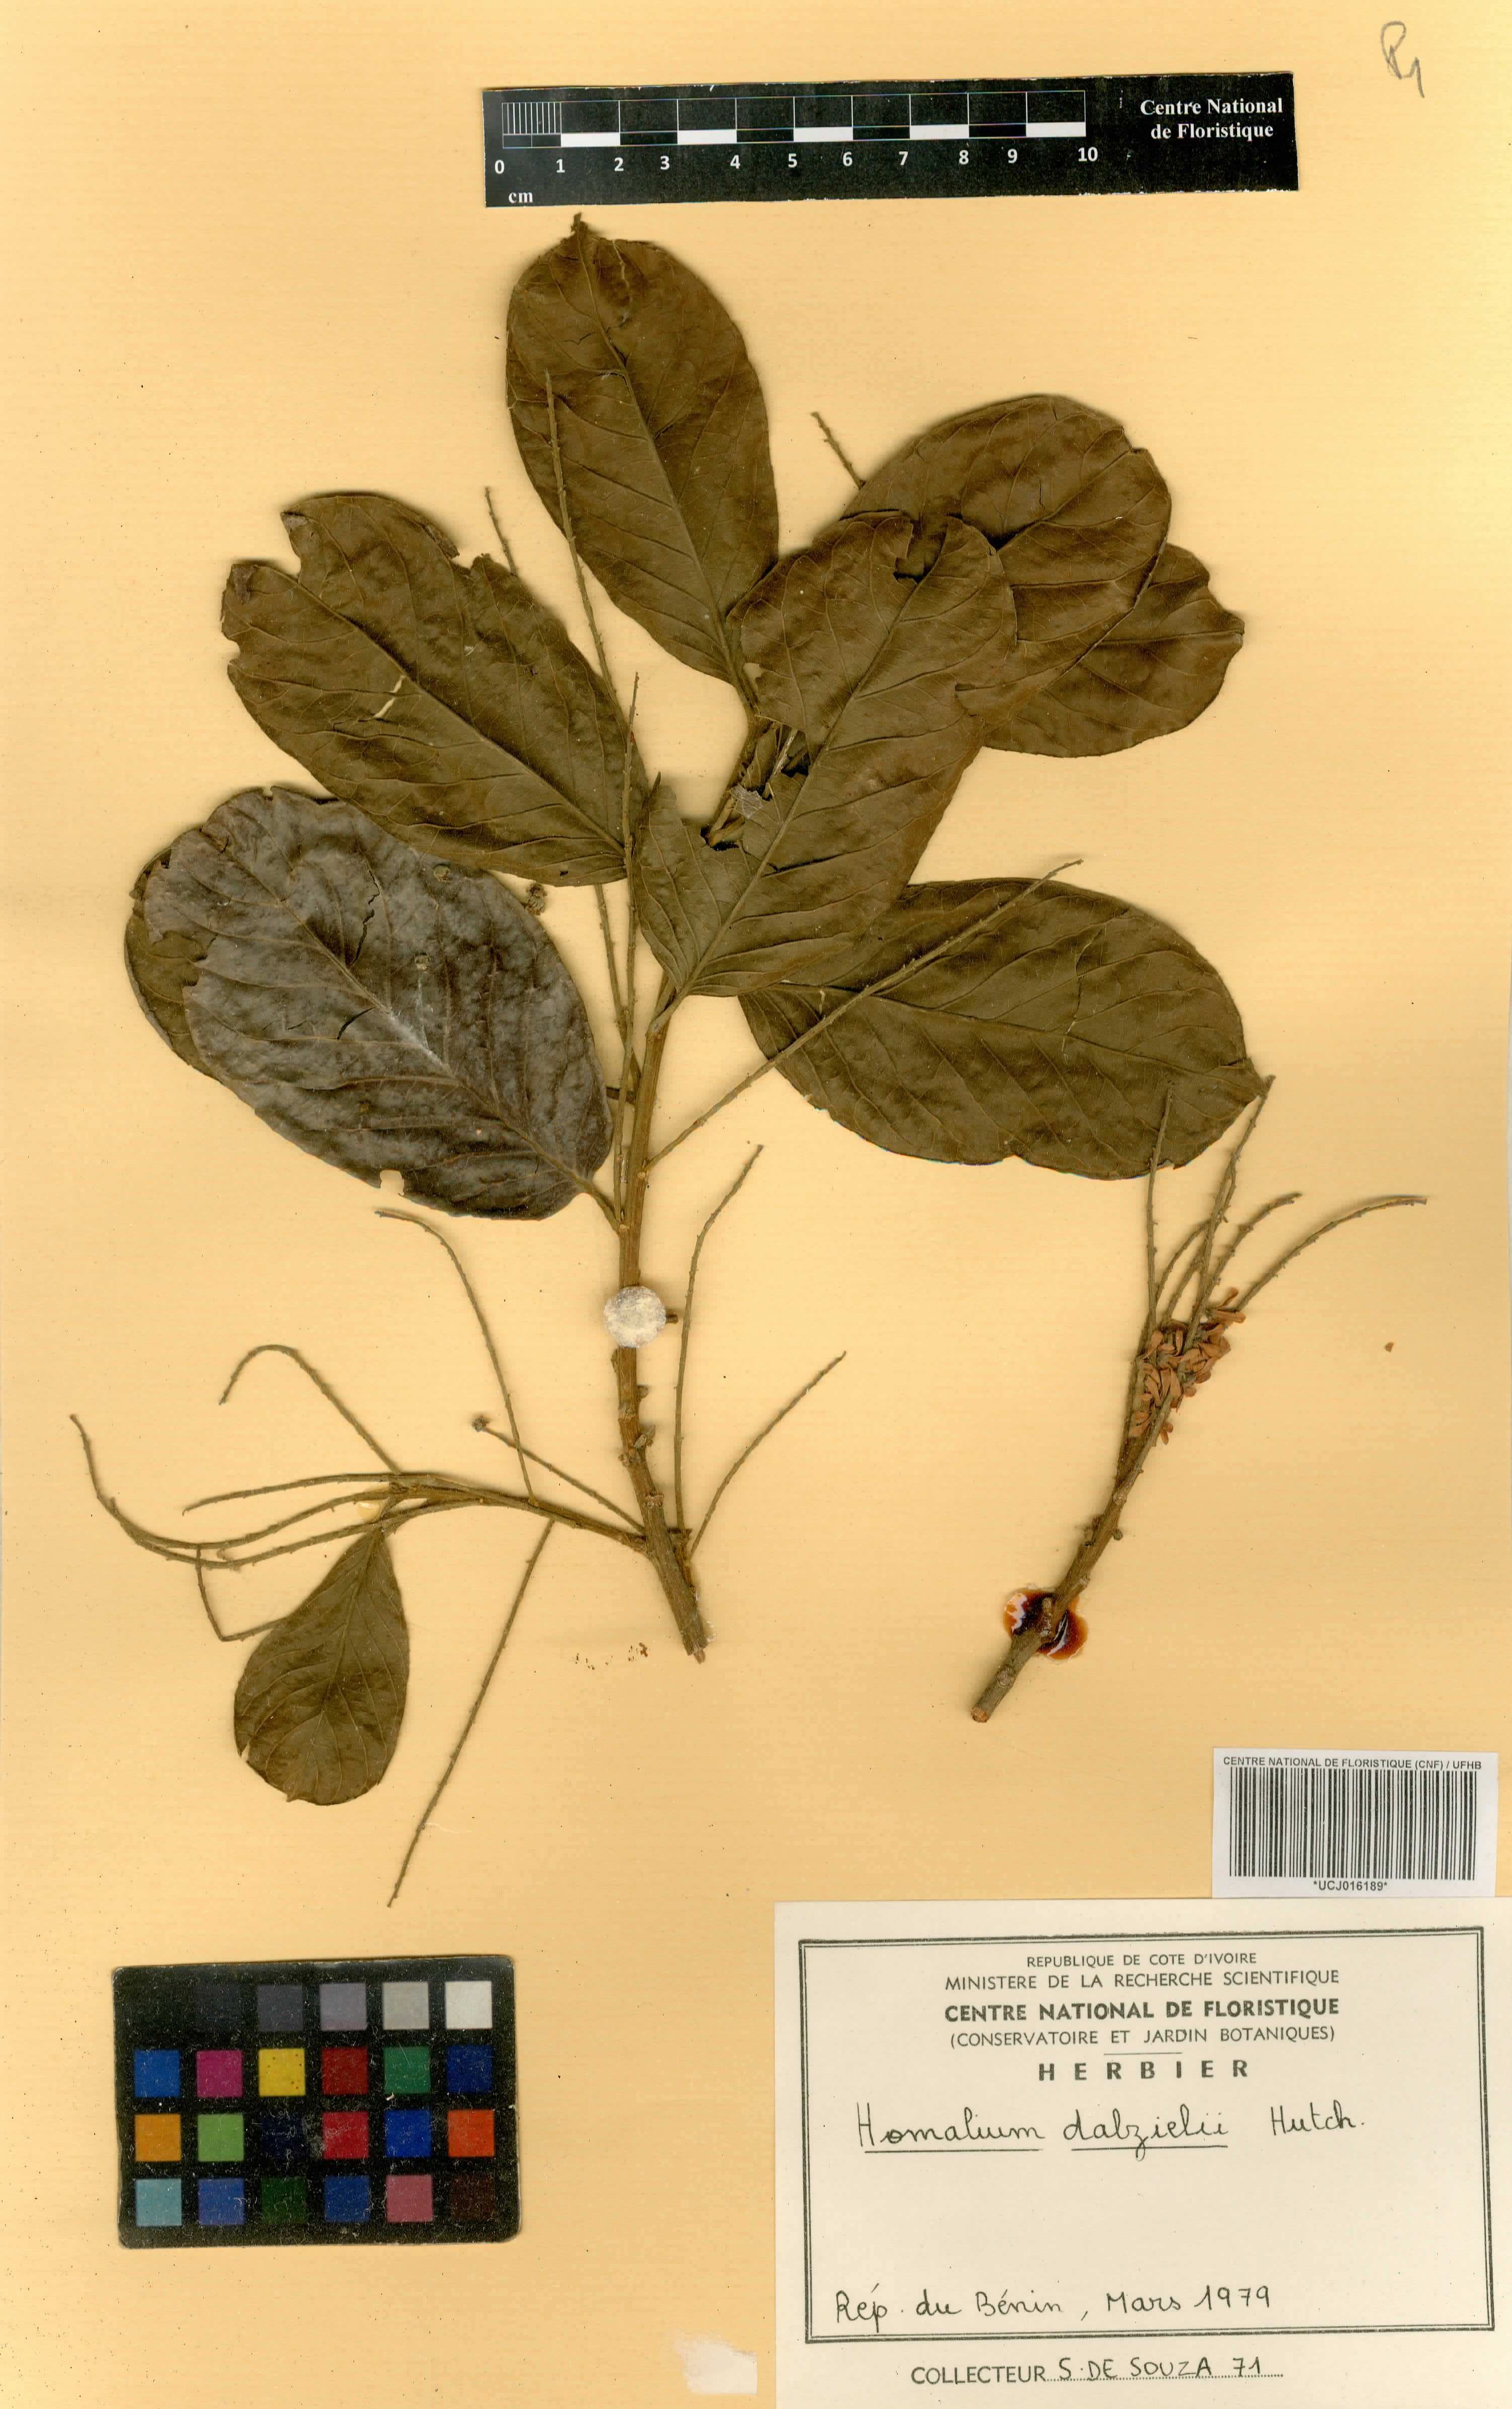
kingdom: Plantae
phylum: Tracheophyta
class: Magnoliopsida
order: Malpighiales
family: Salicaceae
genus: Homalium
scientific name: Homalium dalzielii
